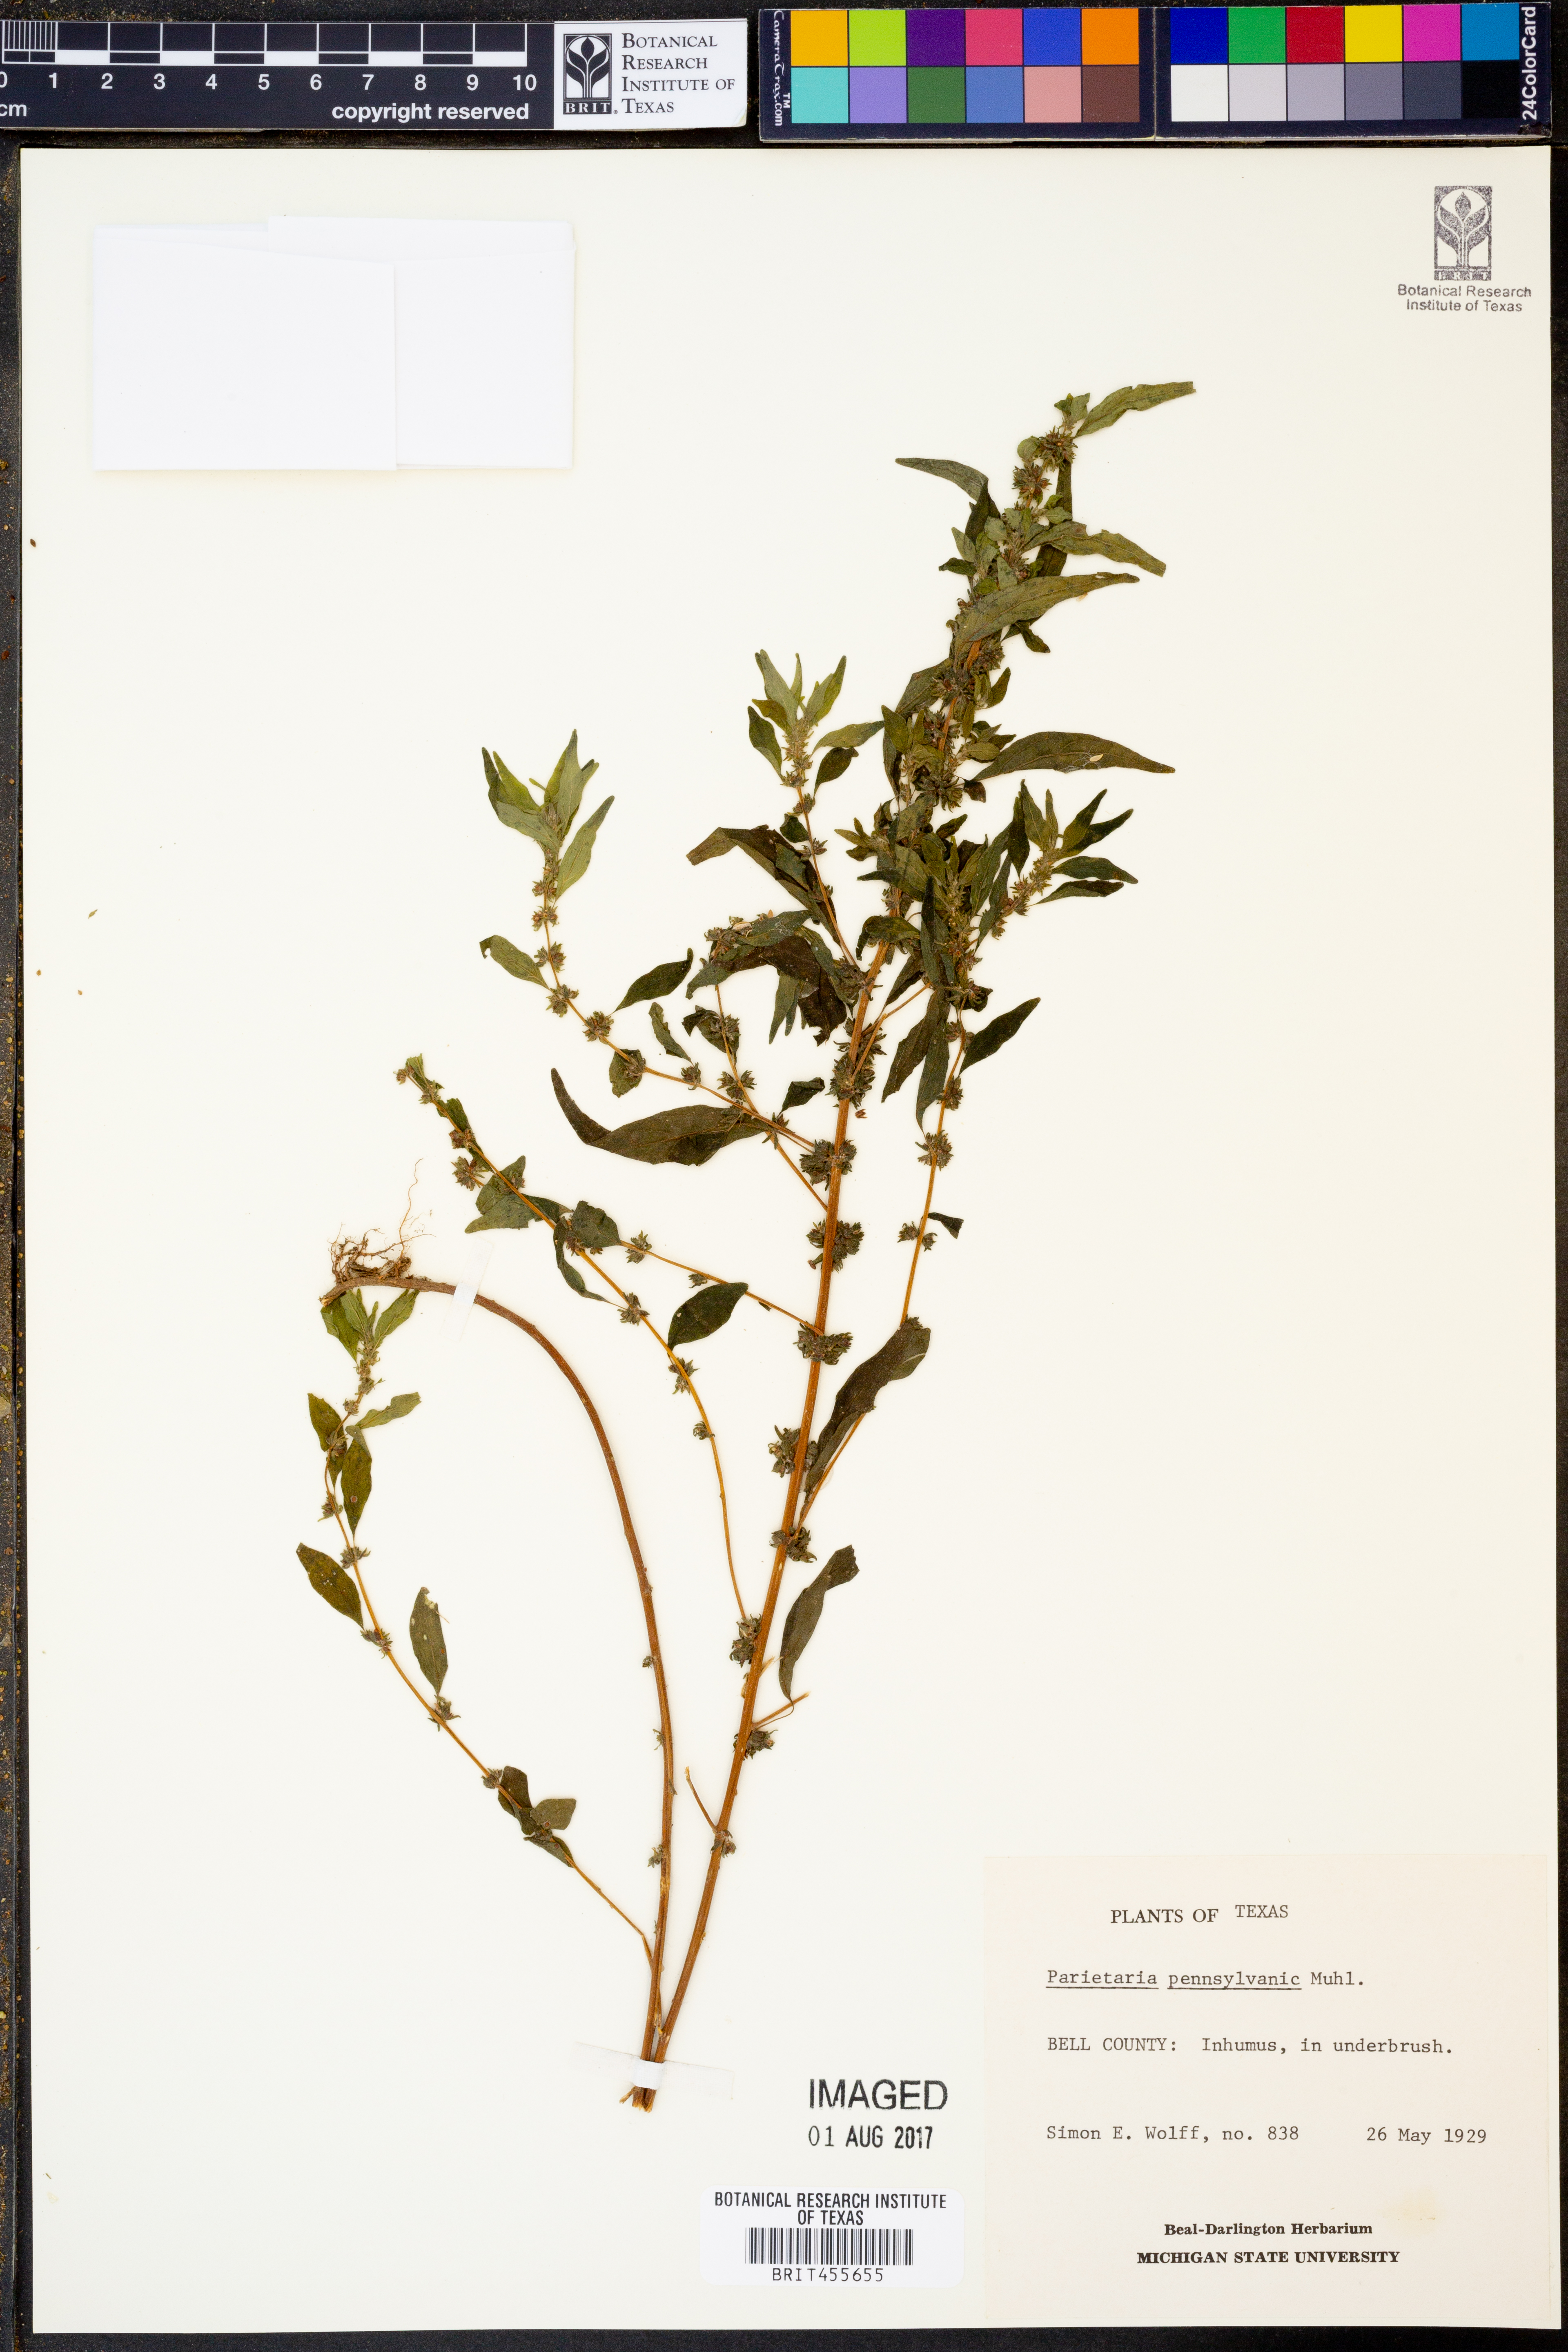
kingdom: Plantae
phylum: Tracheophyta
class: Magnoliopsida
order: Rosales
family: Urticaceae
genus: Parietaria
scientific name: Parietaria pensylvanica
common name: Pennsylvania pellitory
